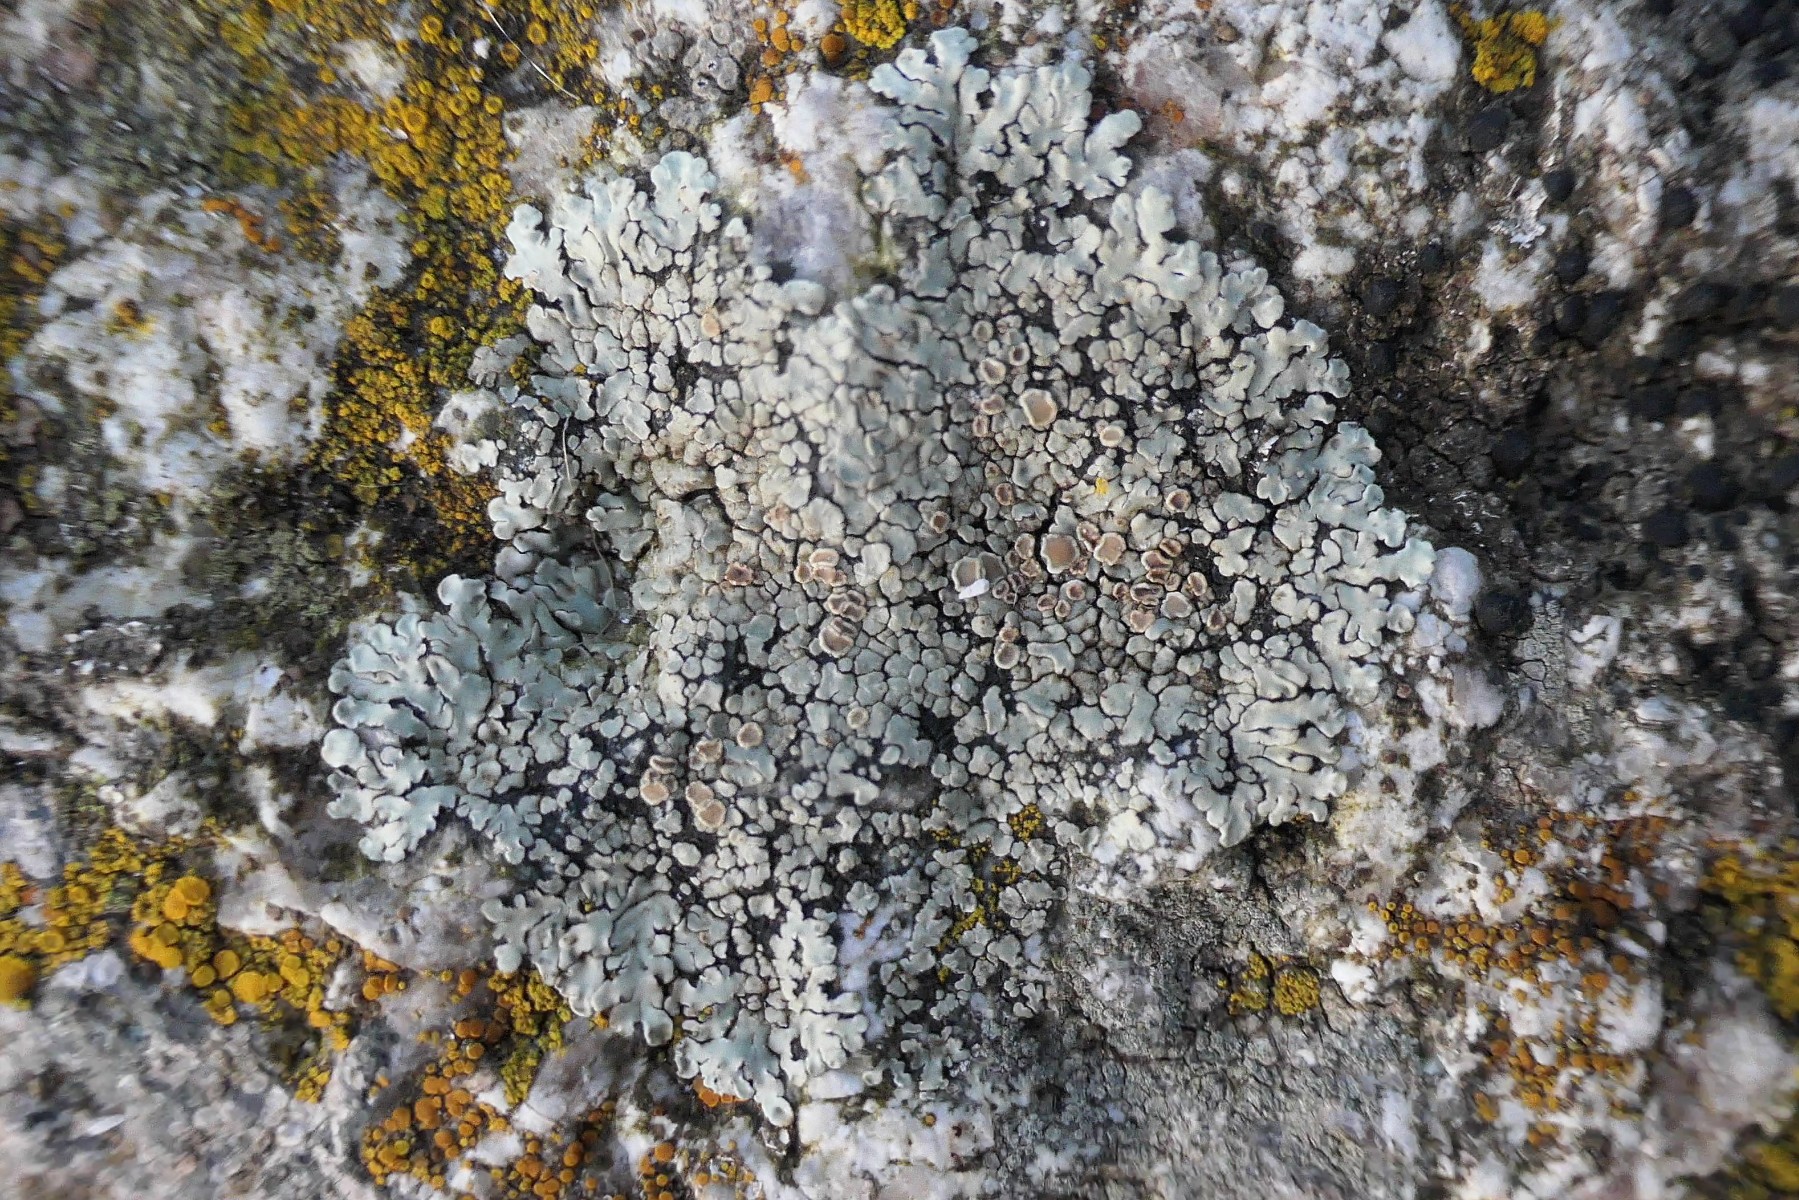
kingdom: Fungi
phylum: Ascomycota
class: Lecanoromycetes
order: Lecanorales
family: Lecanoraceae
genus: Protoparmeliopsis
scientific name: Protoparmeliopsis muralis
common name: randfliget kantskivelav
